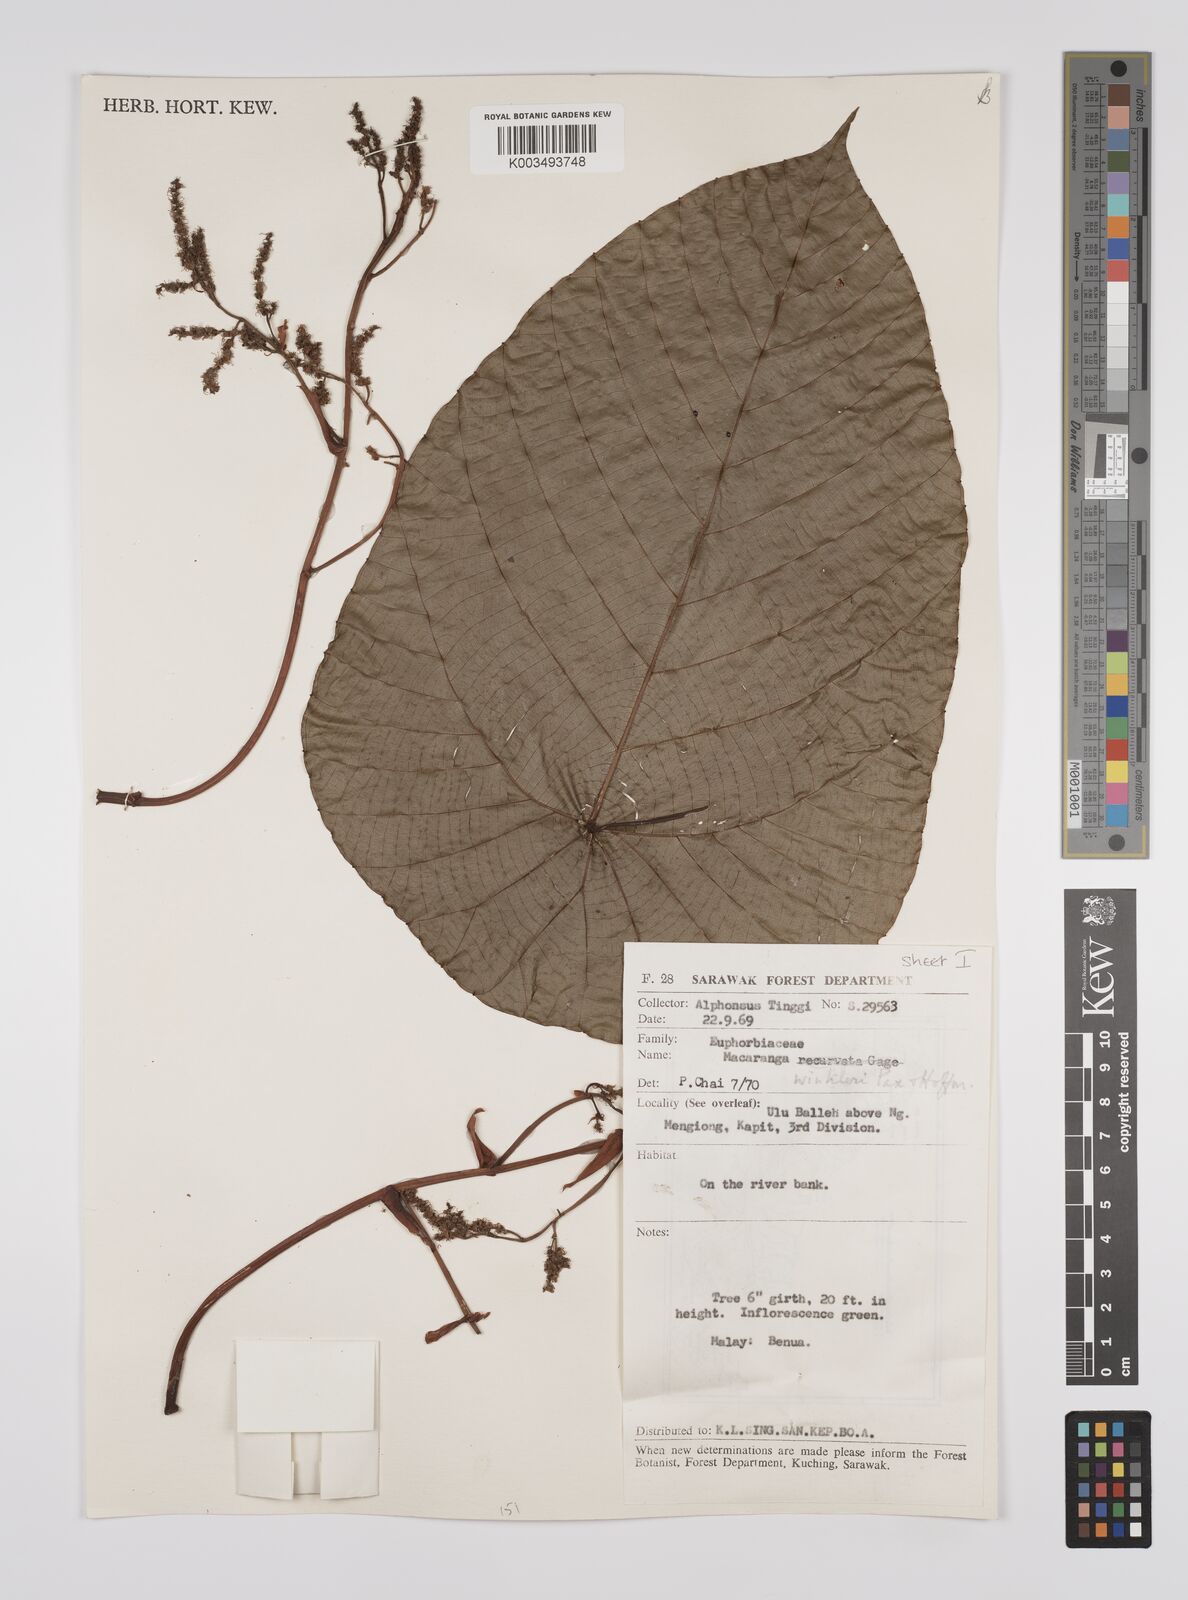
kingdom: Plantae
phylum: Tracheophyta
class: Magnoliopsida
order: Malpighiales
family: Euphorbiaceae
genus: Macaranga
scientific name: Macaranga winkleri
